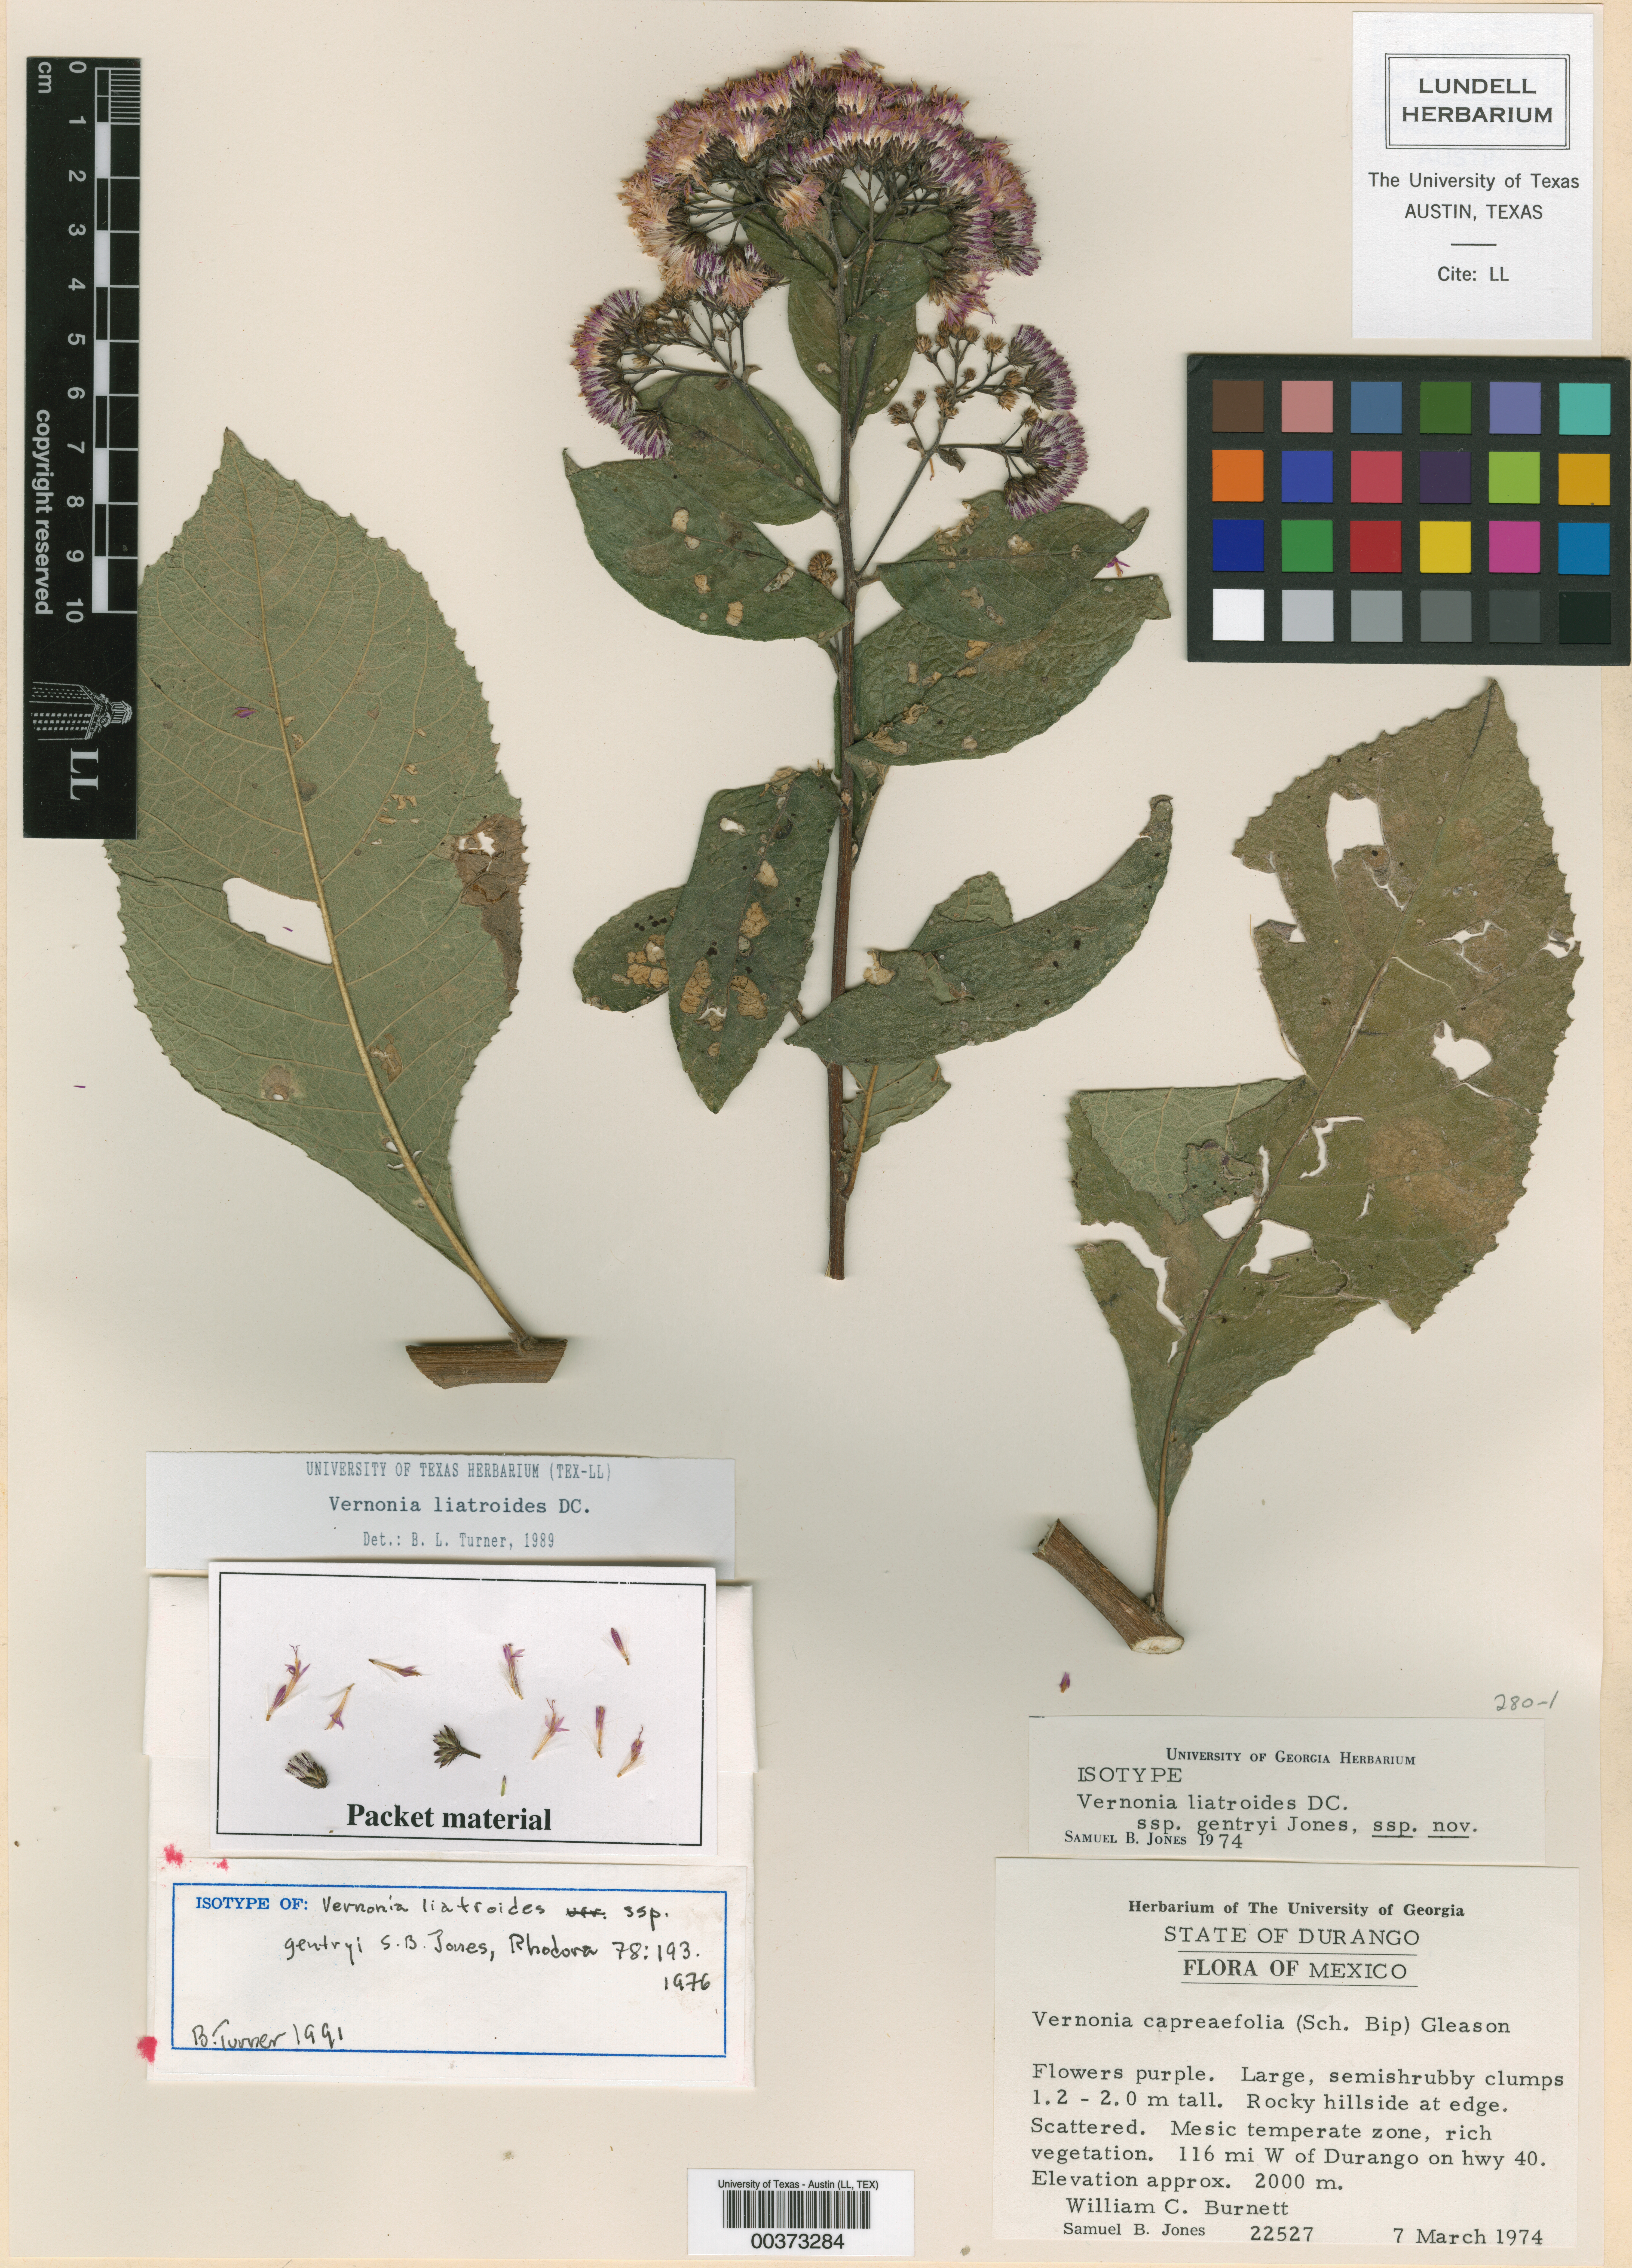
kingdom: Plantae
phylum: Tracheophyta
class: Magnoliopsida
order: Asterales
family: Asteraceae
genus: Vernonia
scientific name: Vernonia greggii
